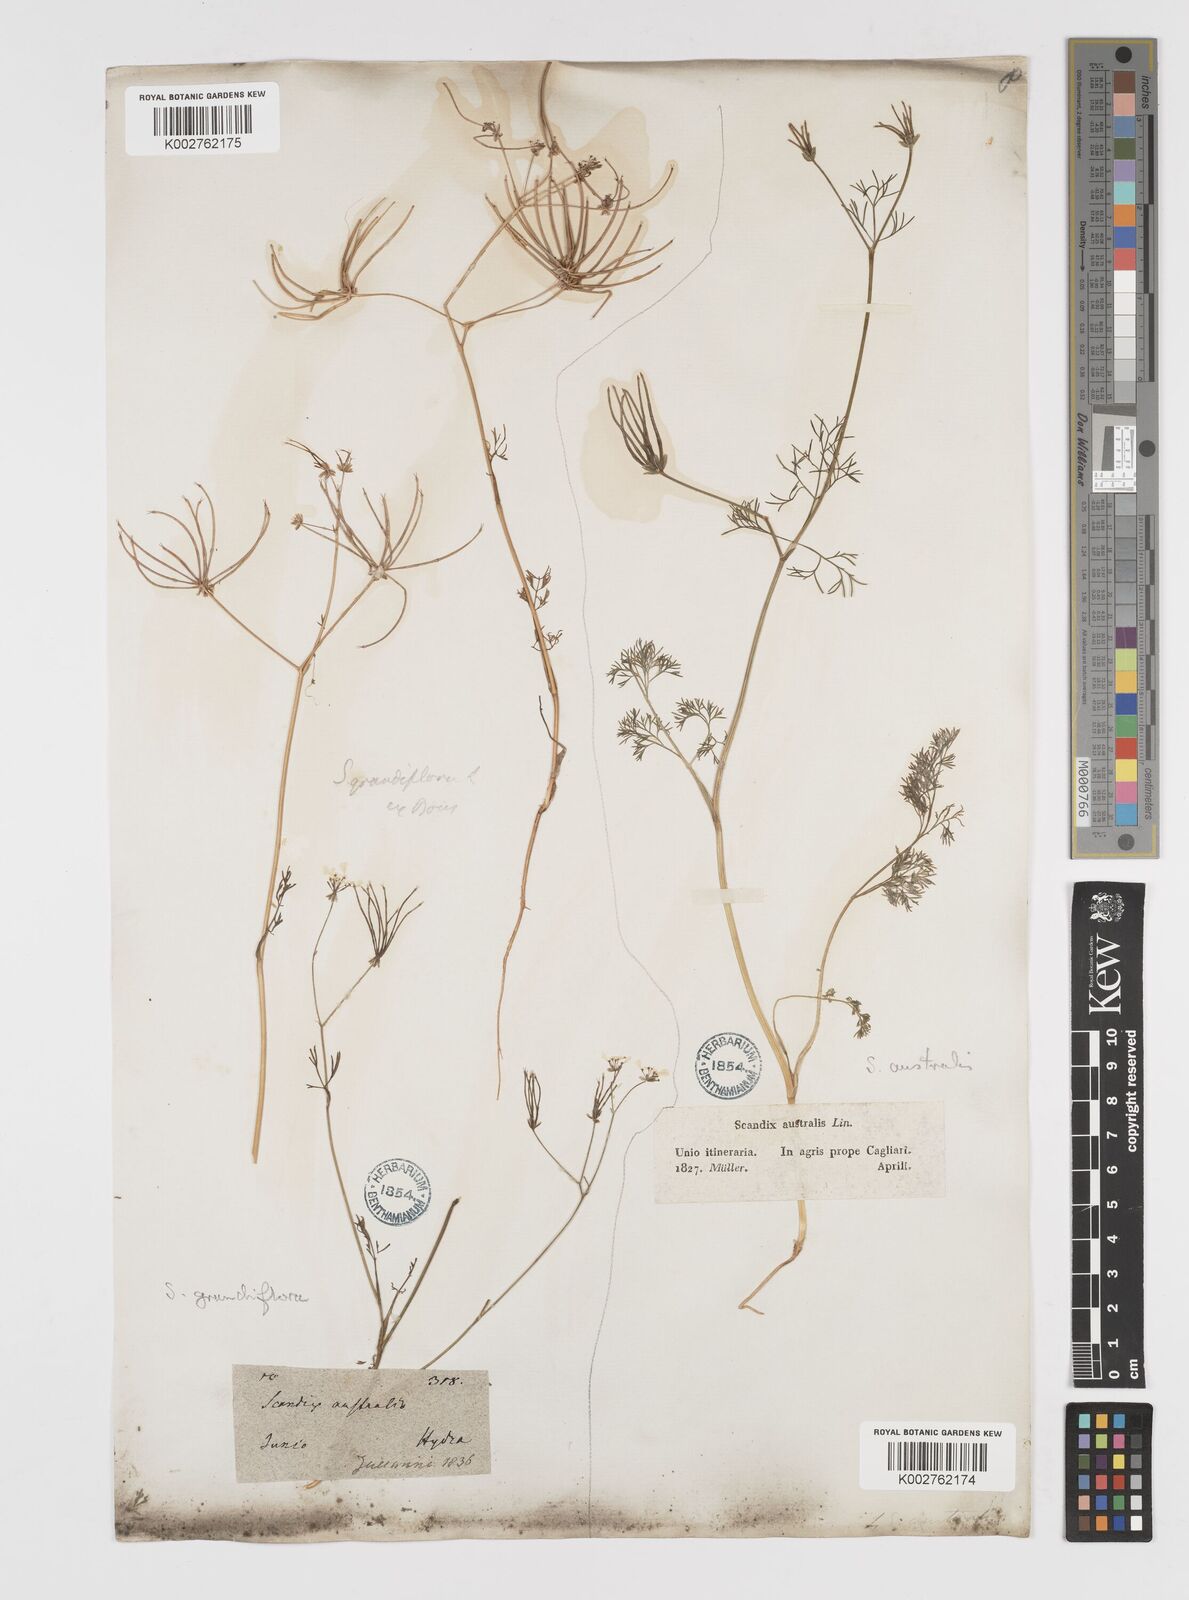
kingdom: Plantae
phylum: Tracheophyta
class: Magnoliopsida
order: Apiales
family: Apiaceae
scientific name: Apiaceae
